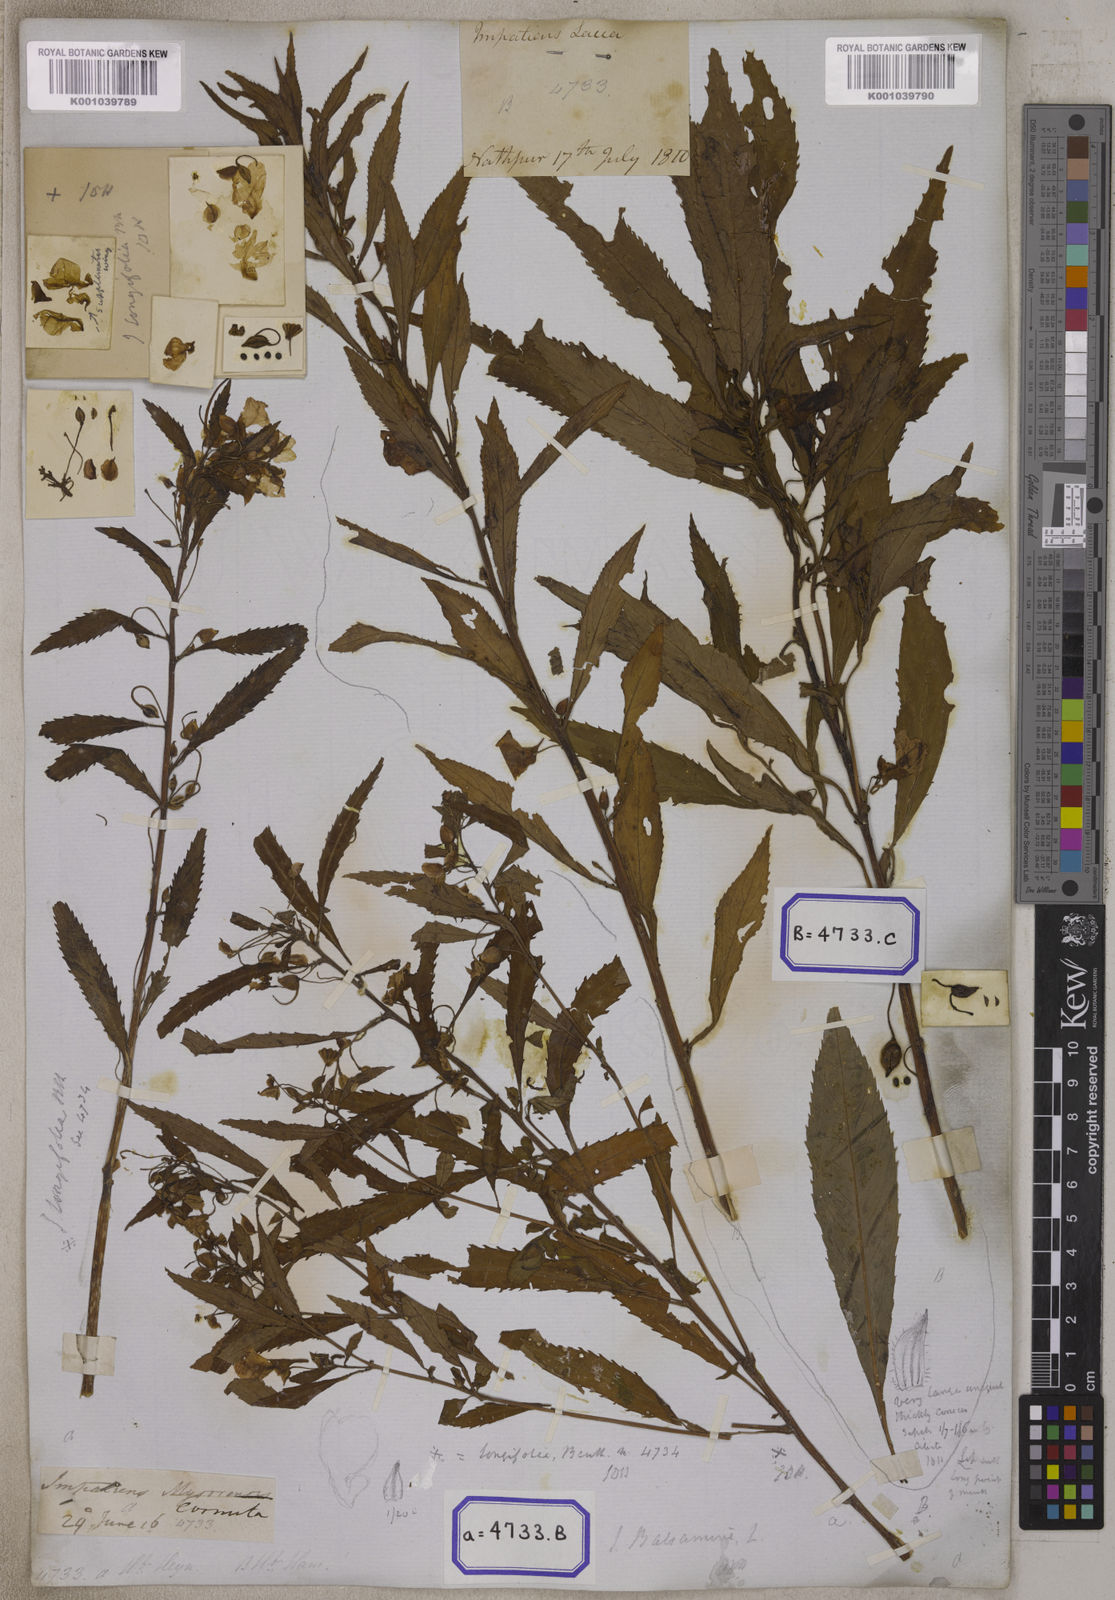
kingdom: Plantae
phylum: Tracheophyta
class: Magnoliopsida
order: Ericales
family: Balsaminaceae
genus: Impatiens
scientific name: Impatiens balsamina
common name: Balsam
